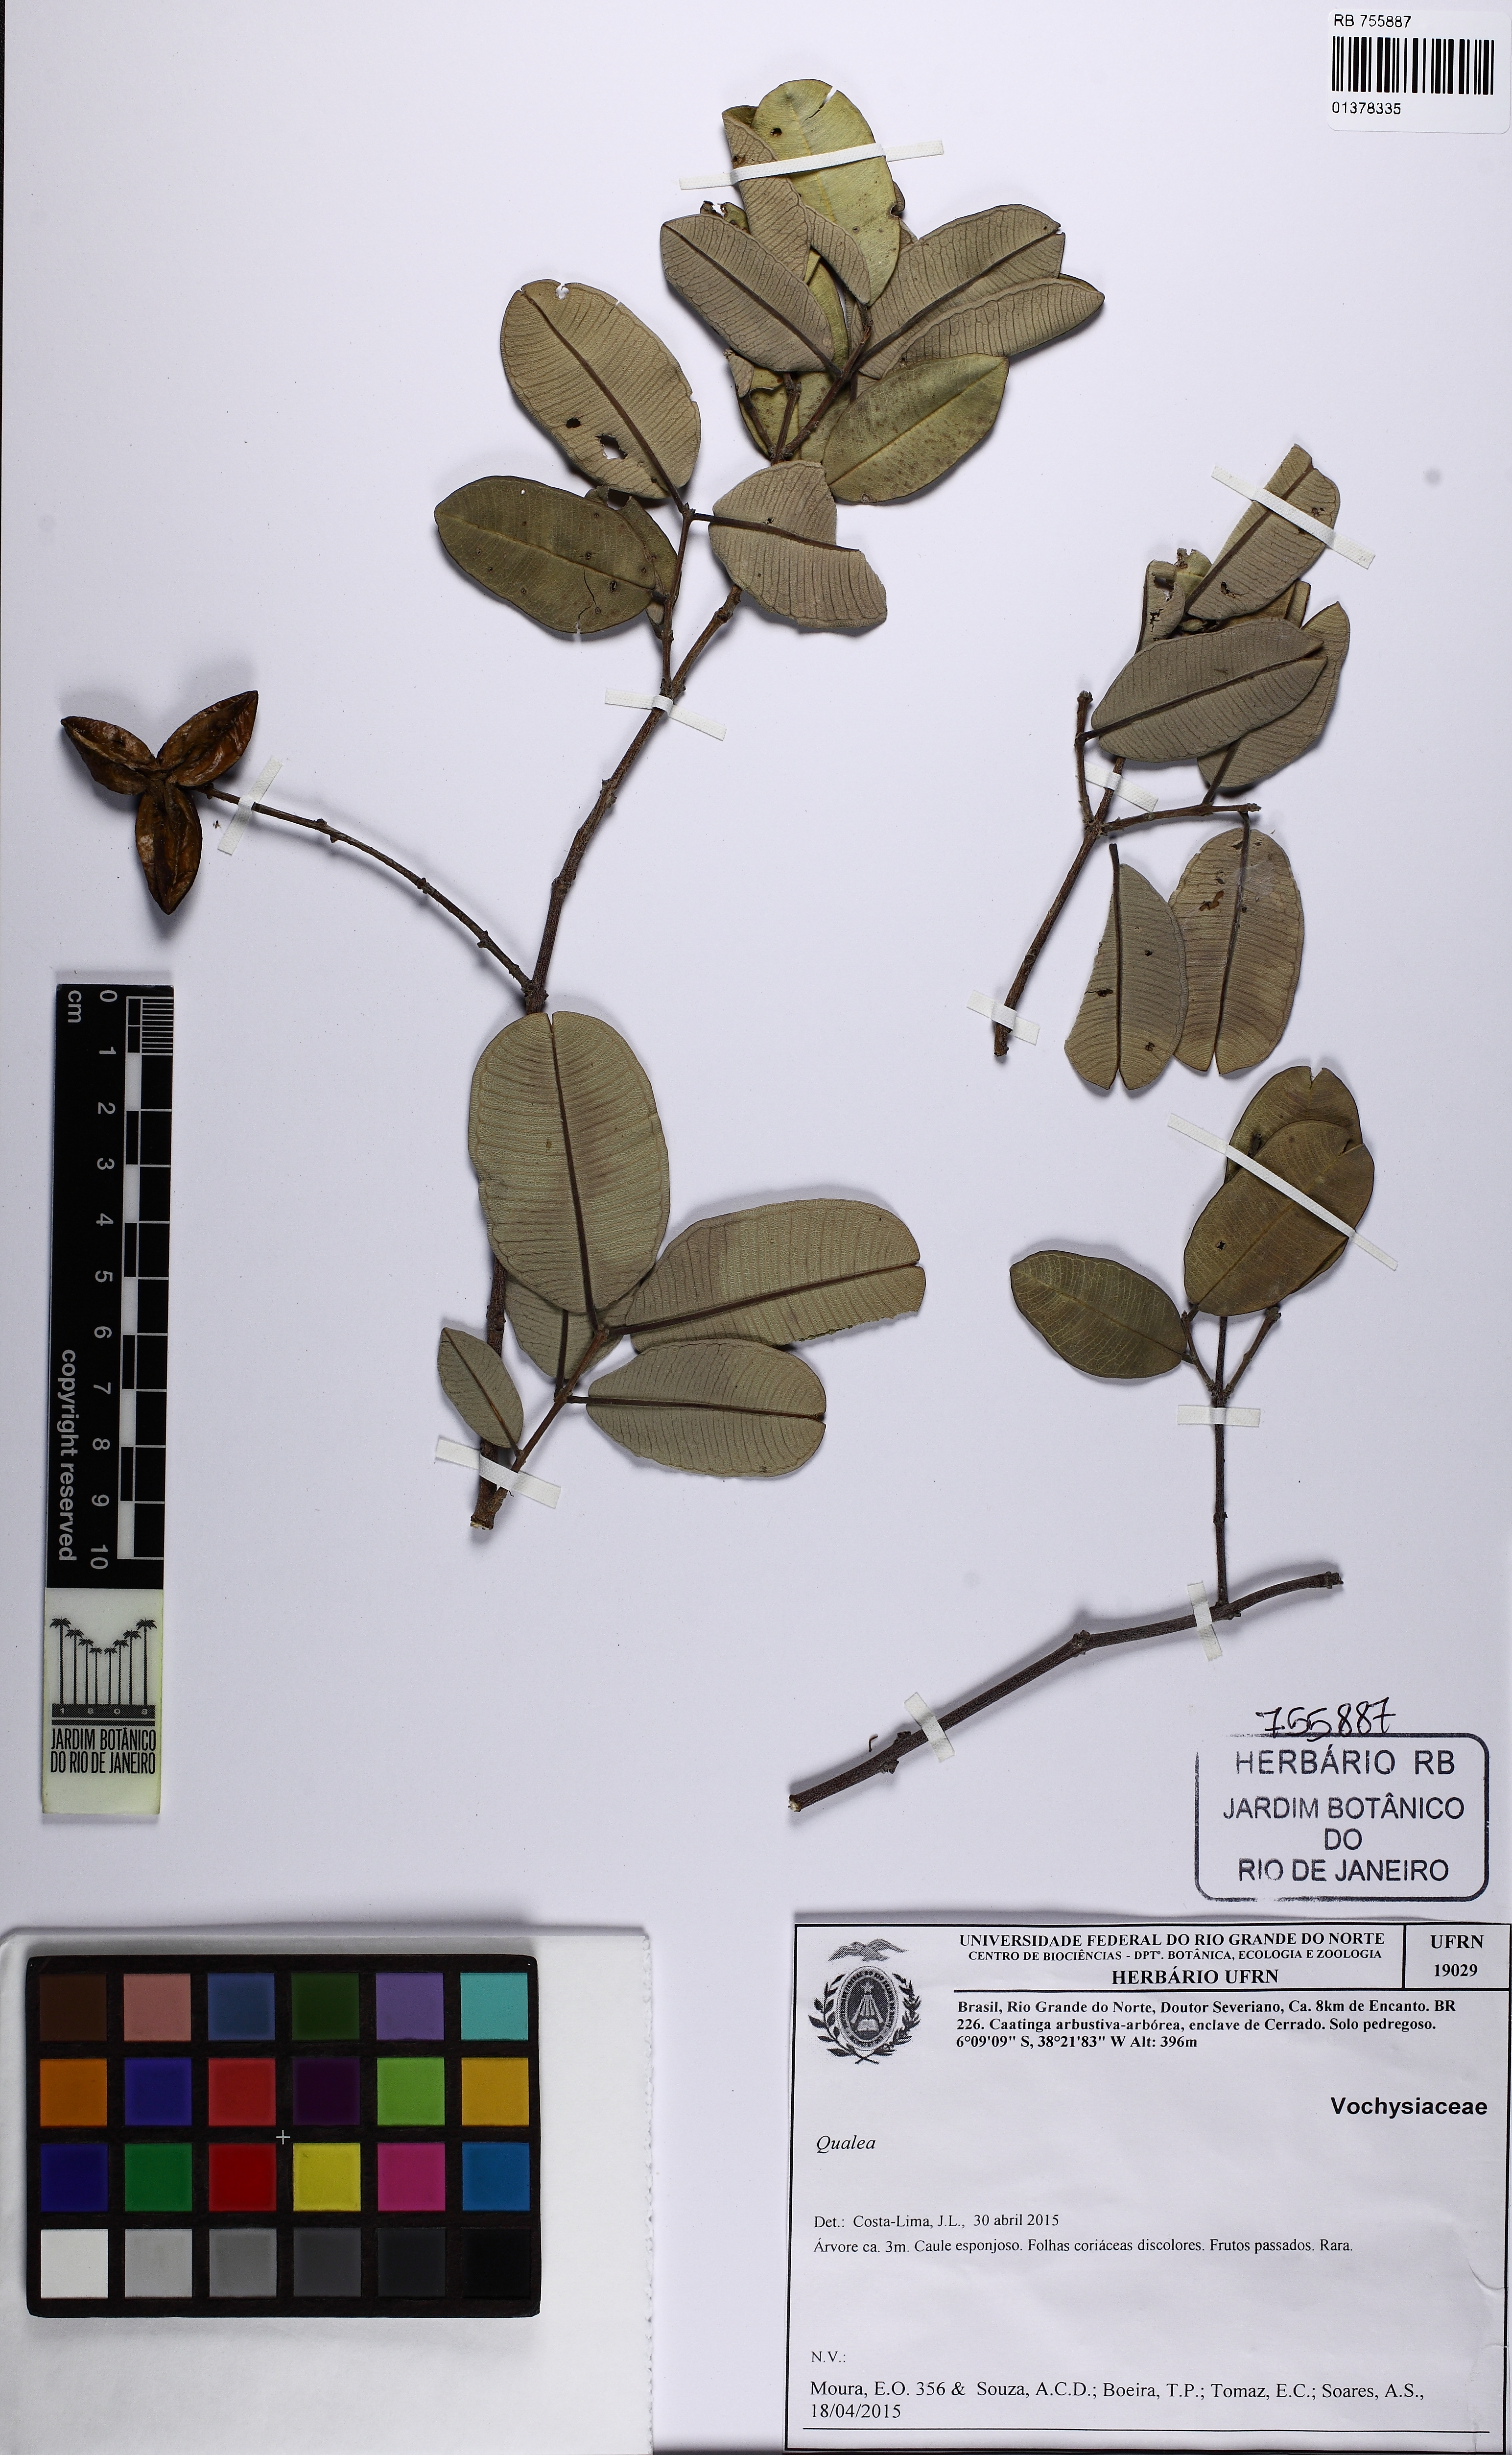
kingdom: Plantae
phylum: Tracheophyta
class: Magnoliopsida
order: Myrtales
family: Vochysiaceae
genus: Qualea
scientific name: Qualea
